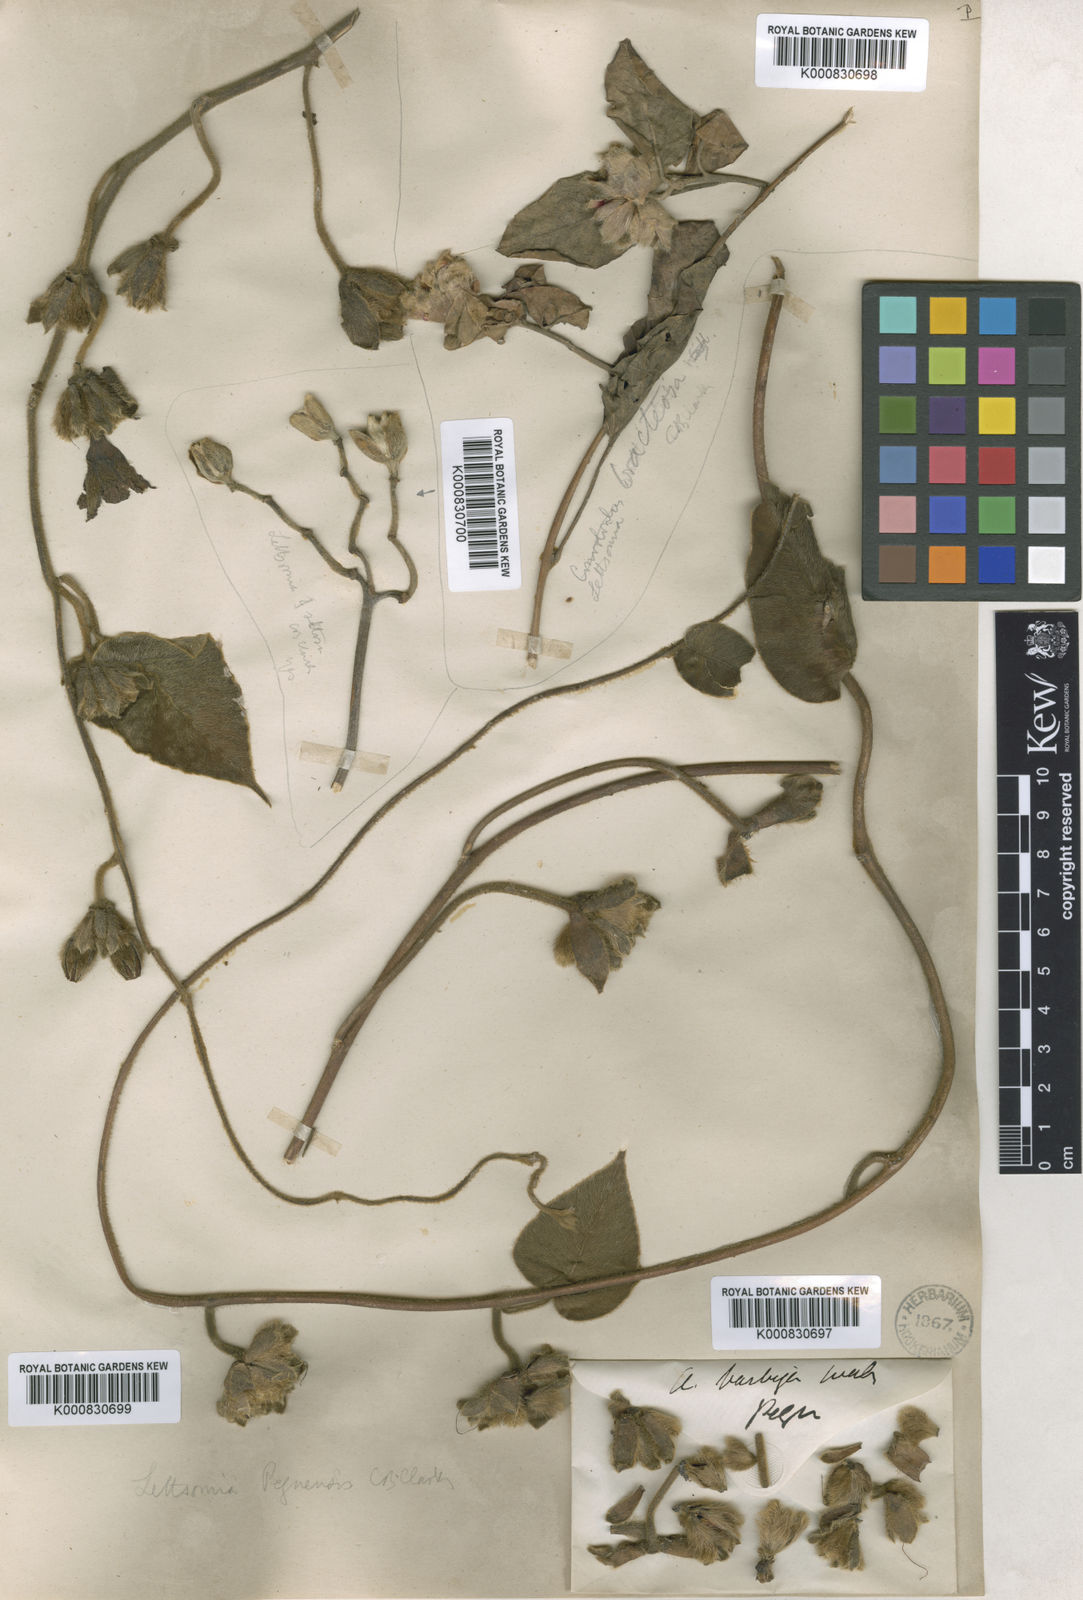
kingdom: Plantae
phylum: Tracheophyta
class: Magnoliopsida
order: Solanales
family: Convolvulaceae
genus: Argyreia
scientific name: Argyreia bracteosa
